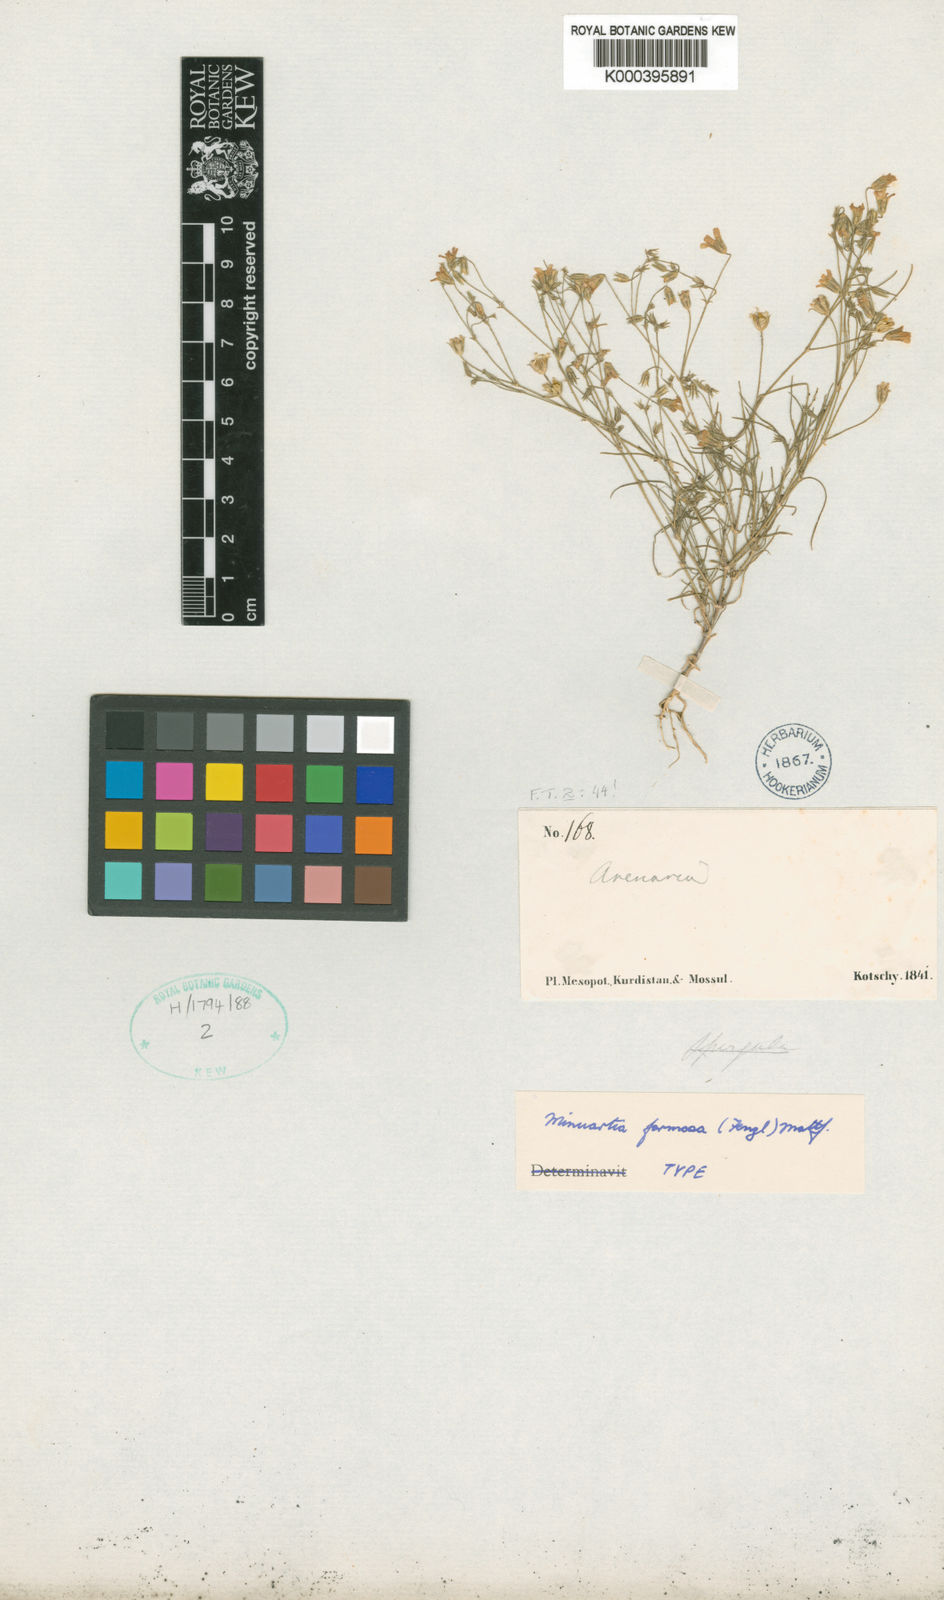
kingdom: Plantae
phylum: Tracheophyta
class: Magnoliopsida
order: Caryophyllales
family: Caryophyllaceae
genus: Eremogone
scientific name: Eremogone minuartioides
